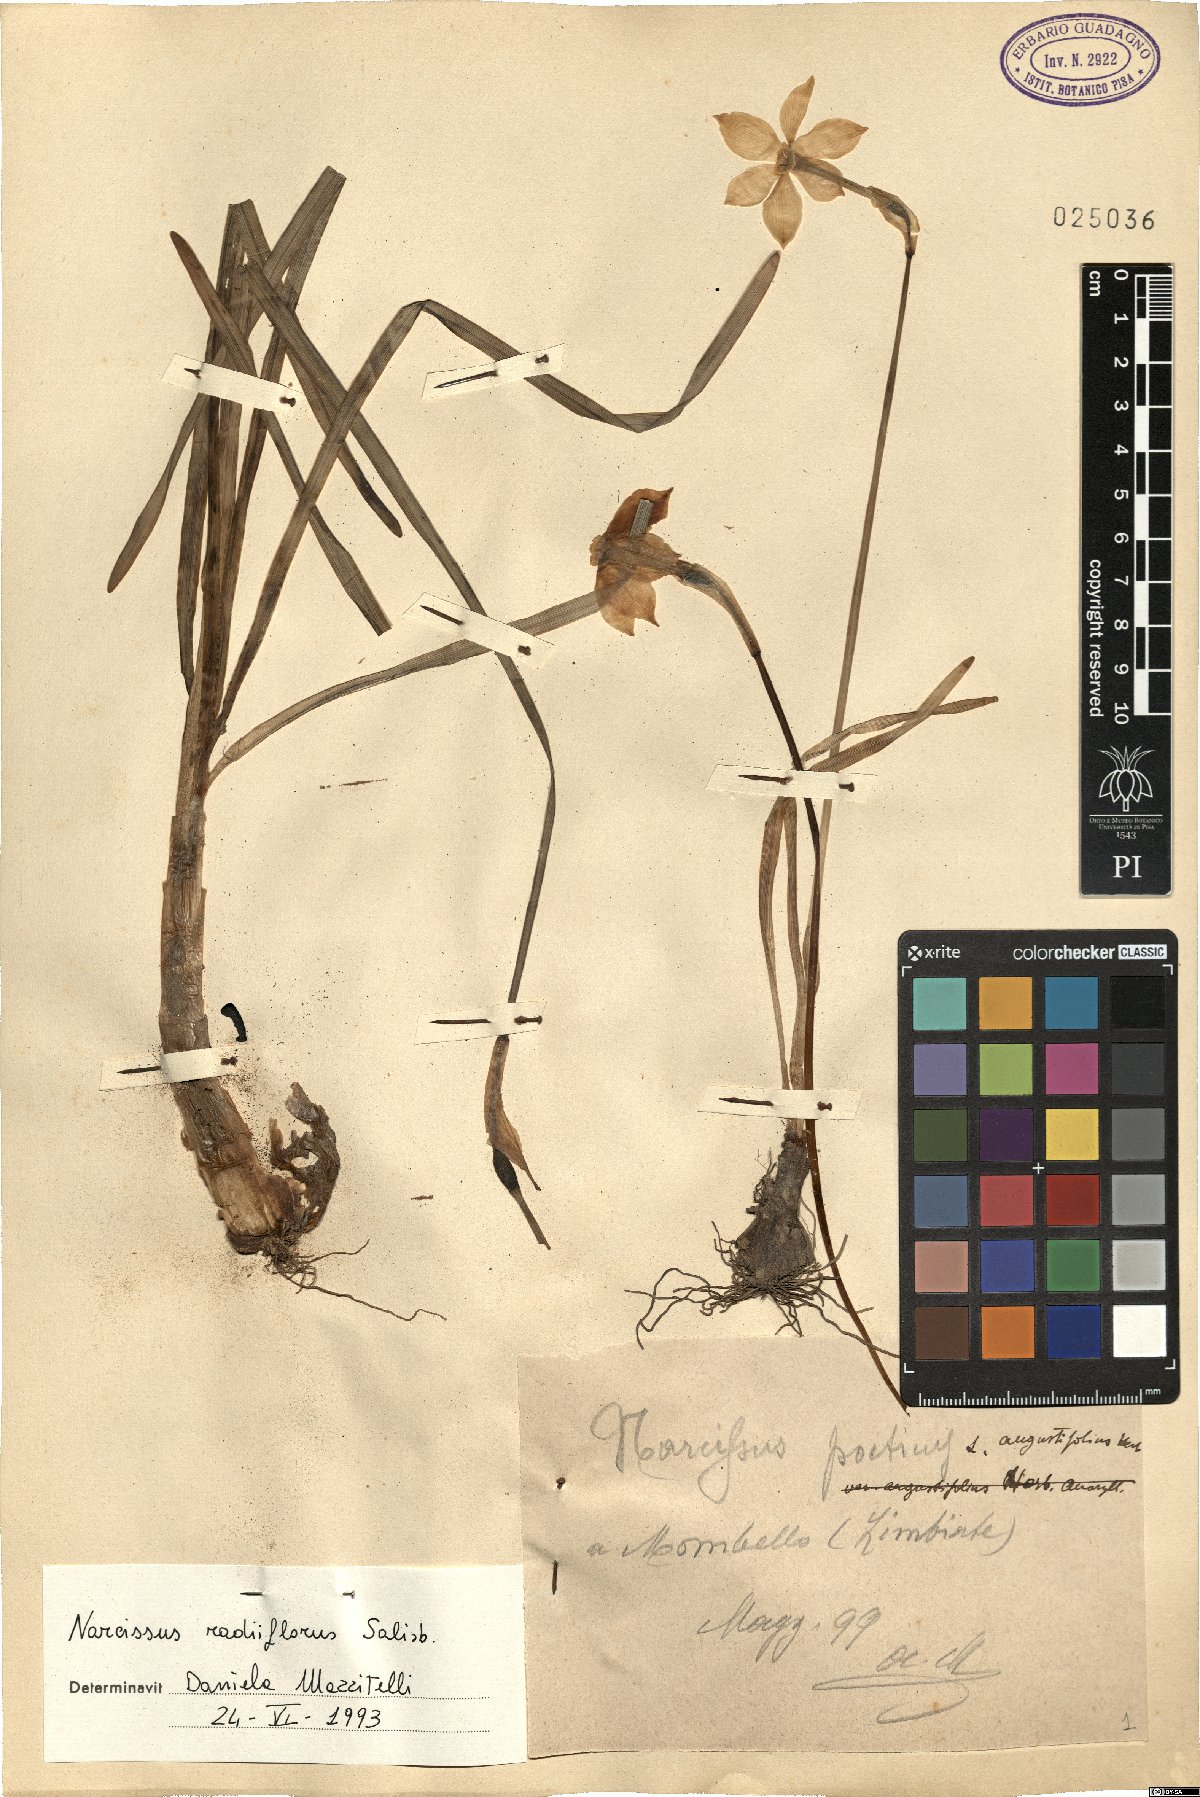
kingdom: Plantae
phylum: Tracheophyta
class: Liliopsida
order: Asparagales
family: Amaryllidaceae
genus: Narcissus
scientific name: Narcissus poeticus
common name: Pheasant's-eye daffodil
